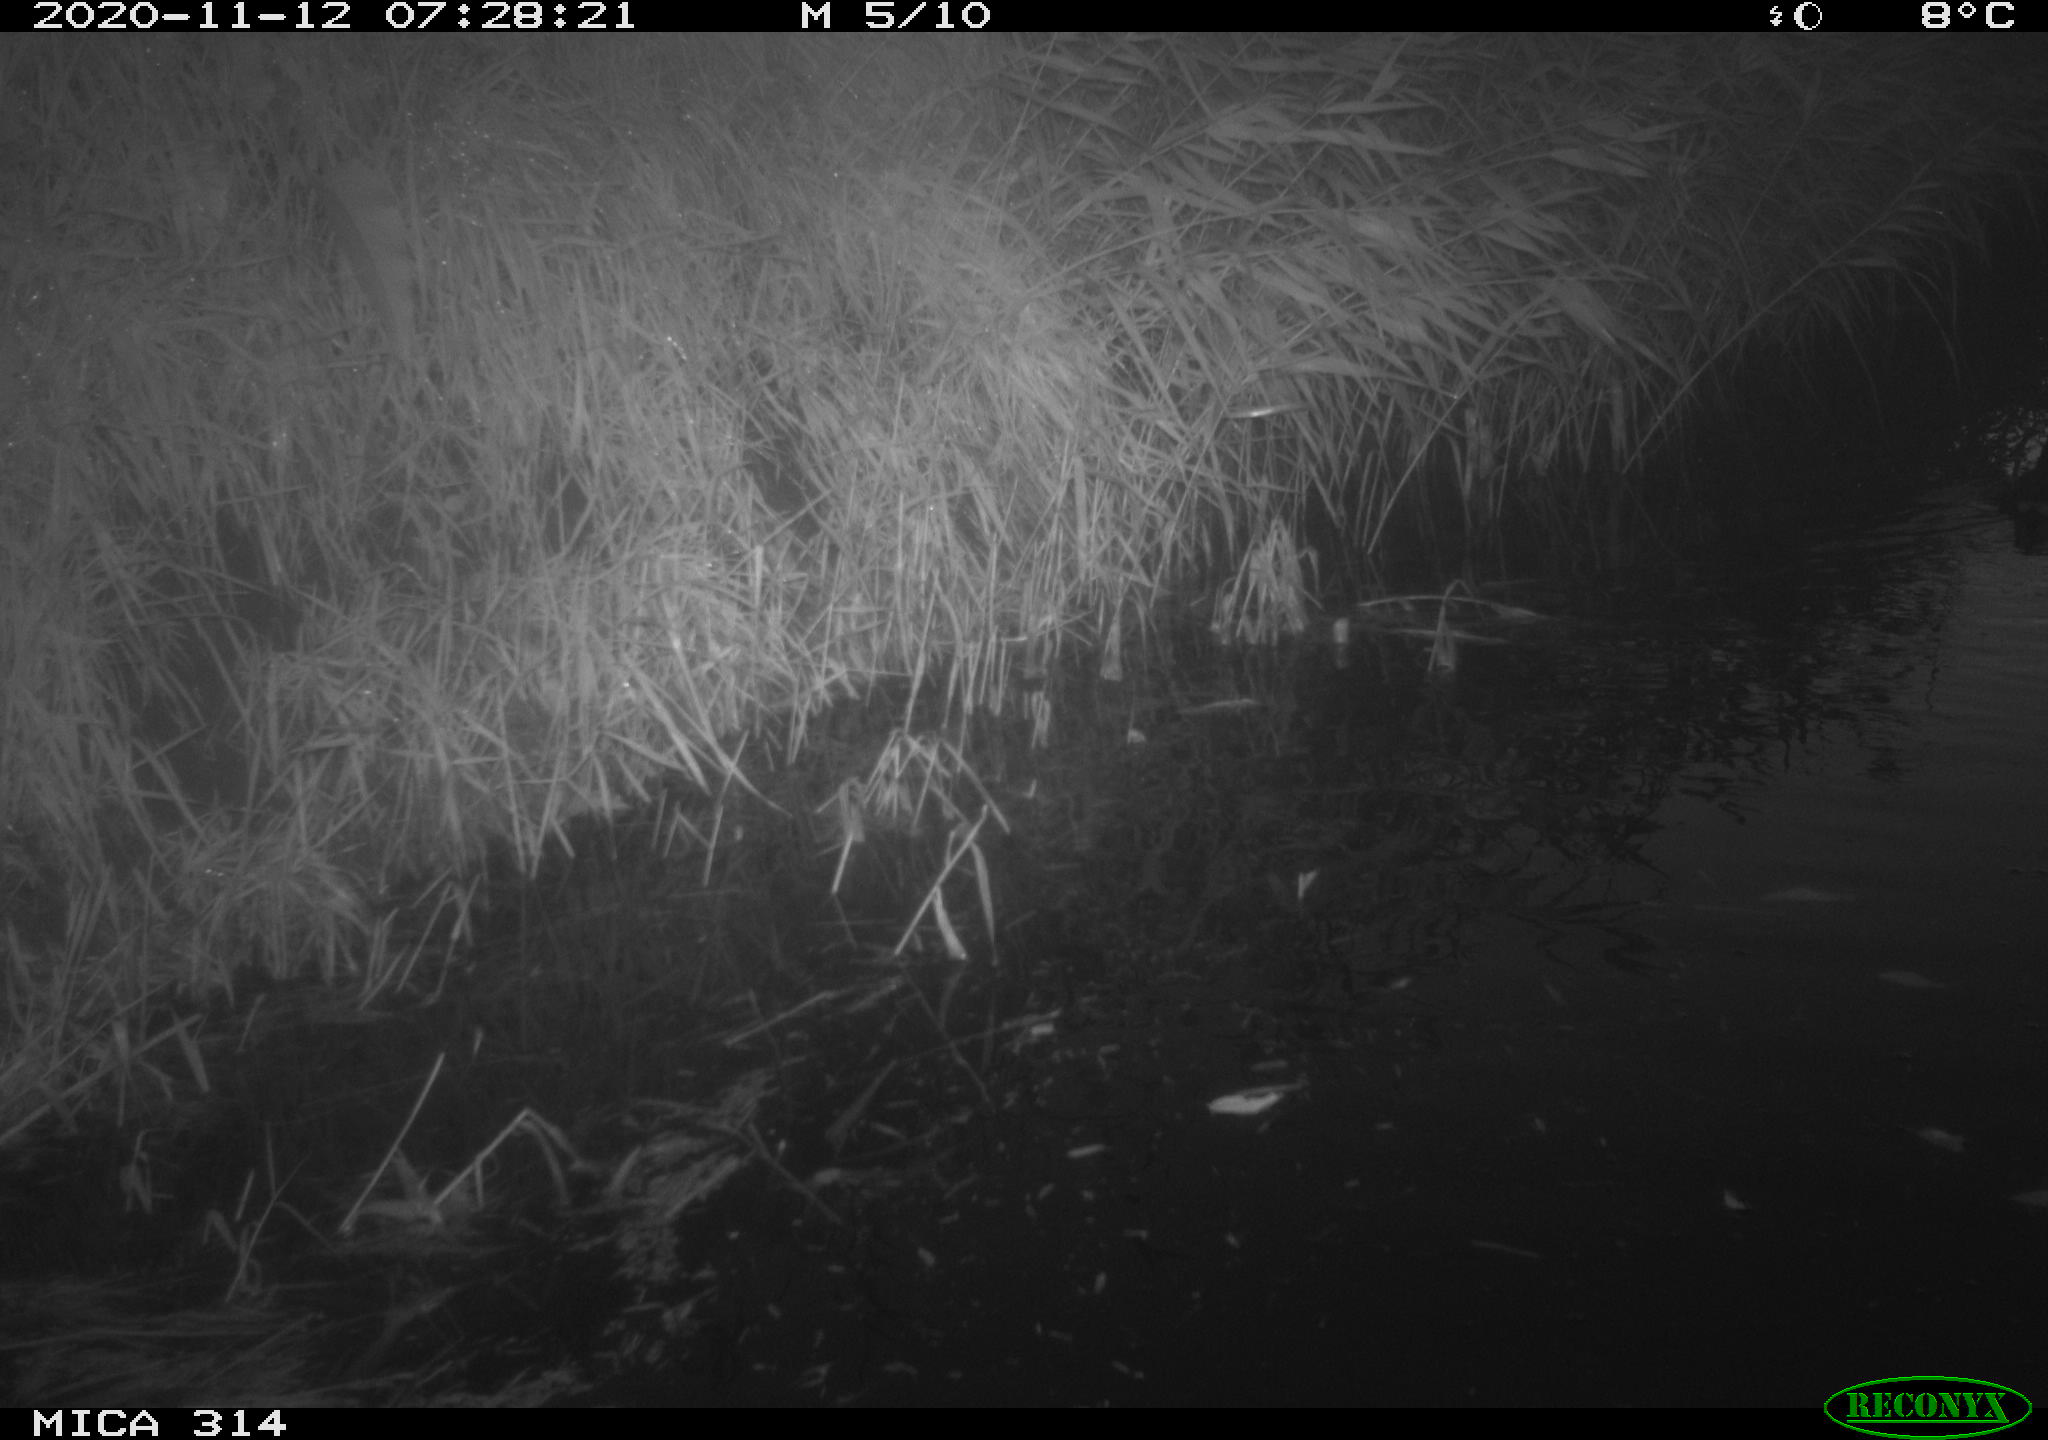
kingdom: Animalia
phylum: Chordata
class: Aves
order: Gruiformes
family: Rallidae
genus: Gallinula
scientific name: Gallinula chloropus
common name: Common moorhen
